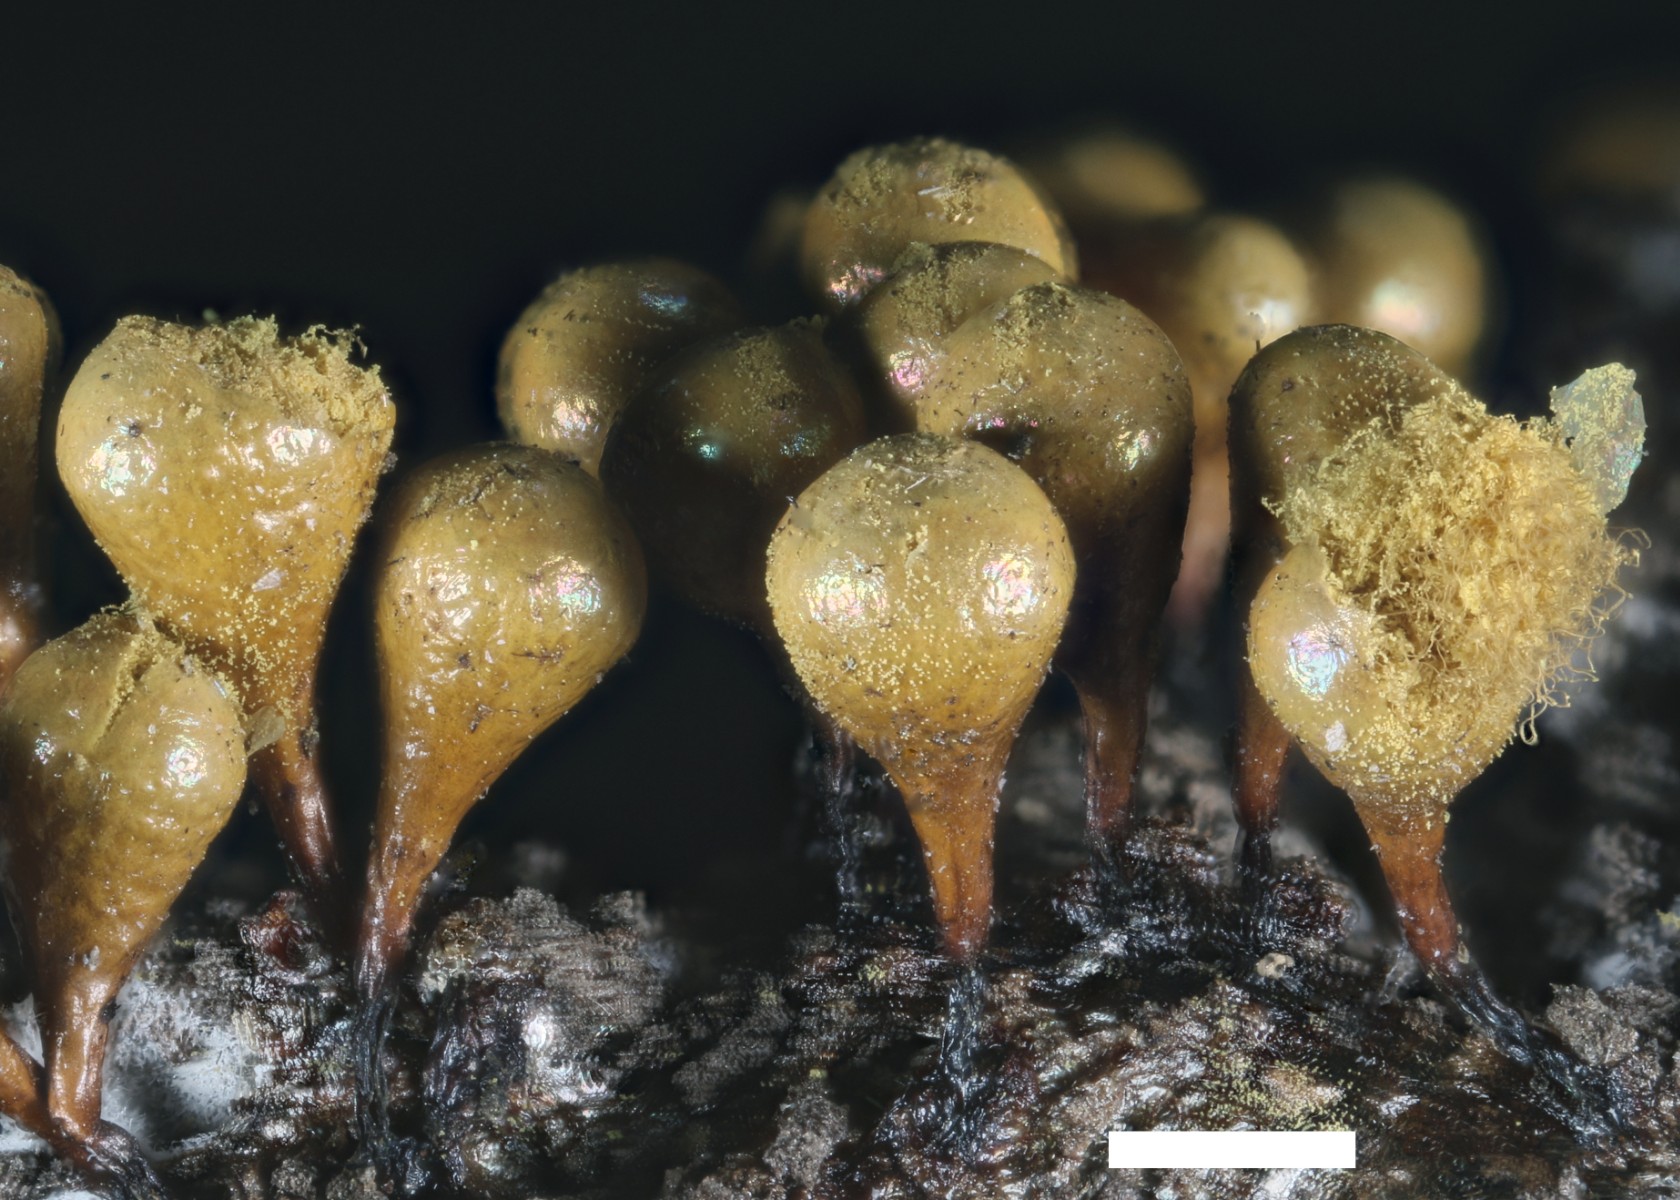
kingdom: Protozoa
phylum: Mycetozoa
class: Myxomycetes
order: Trichiales
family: Arcyriaceae
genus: Hemitrichia
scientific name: Hemitrichia clavata
